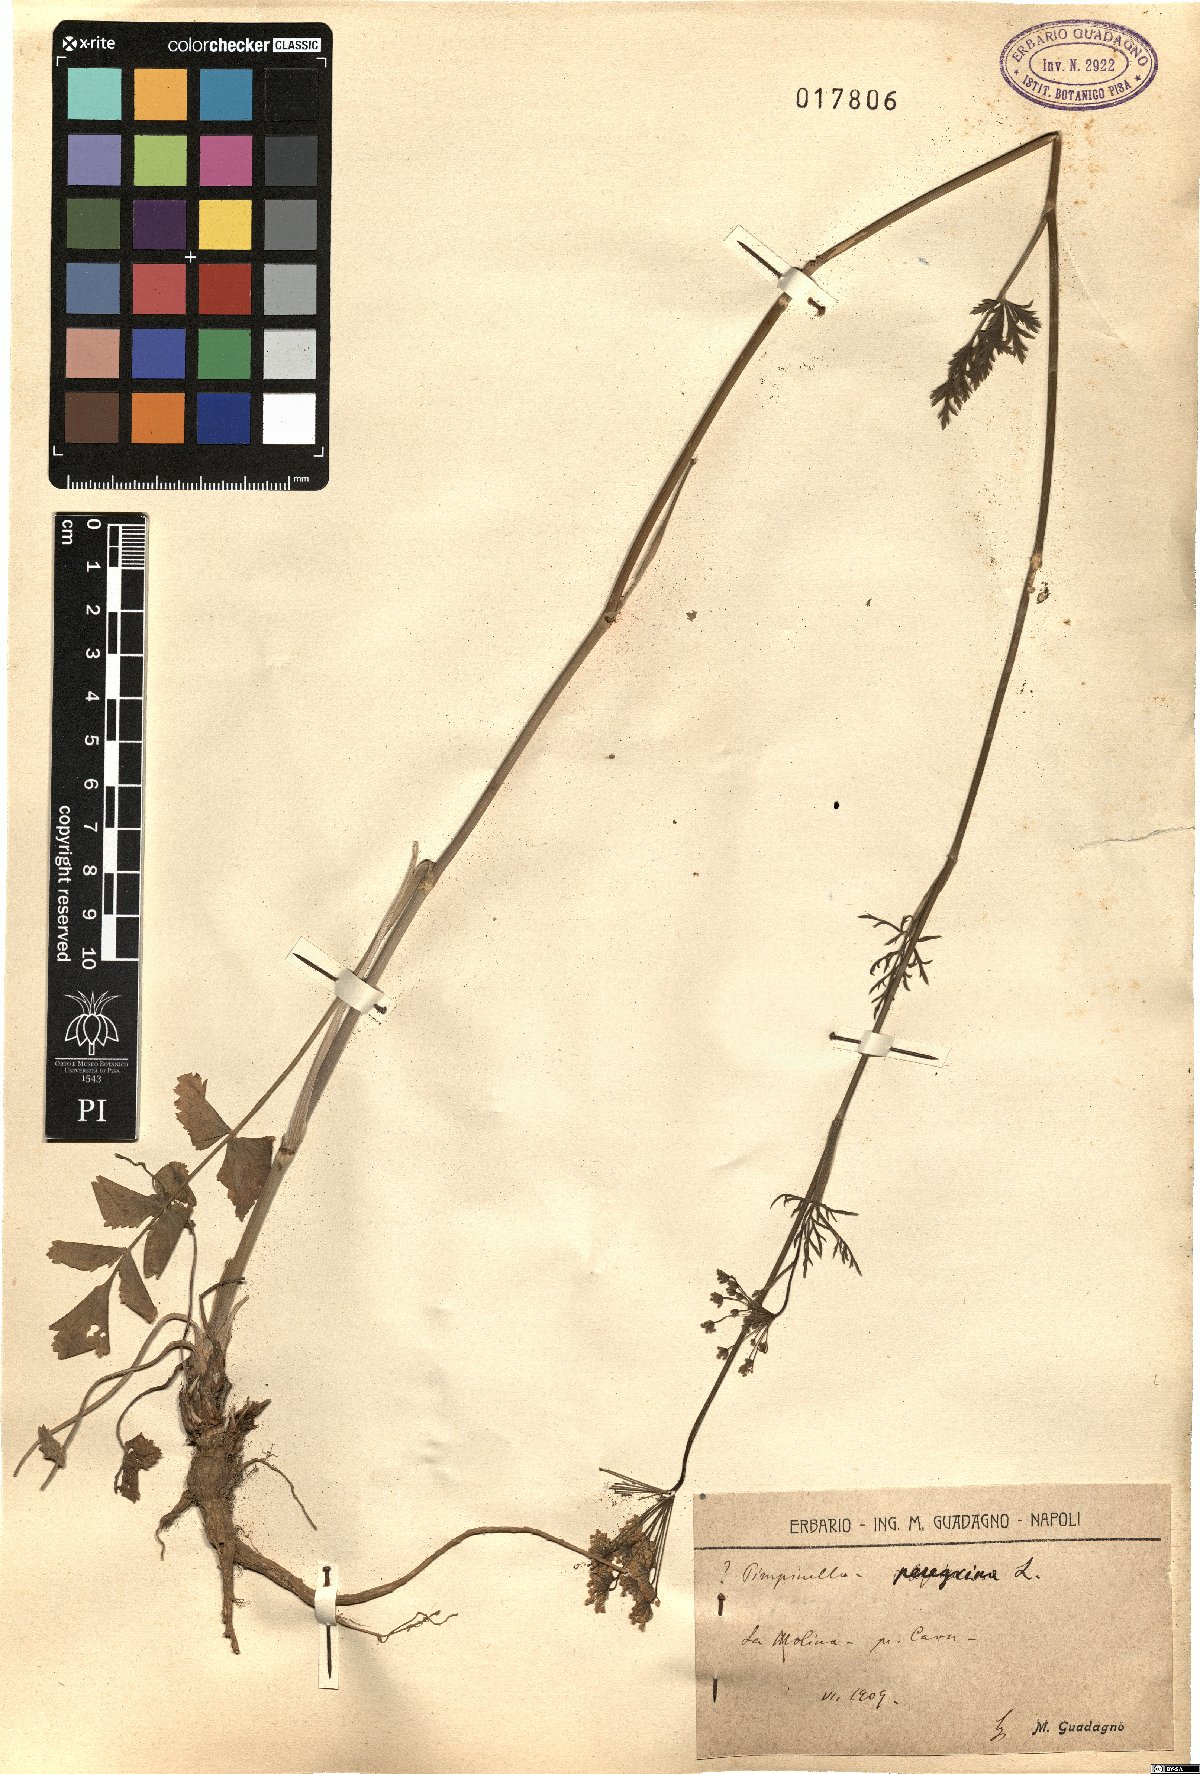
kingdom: Plantae
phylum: Tracheophyta
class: Magnoliopsida
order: Apiales
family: Apiaceae
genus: Pimpinella
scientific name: Pimpinella peregrina
